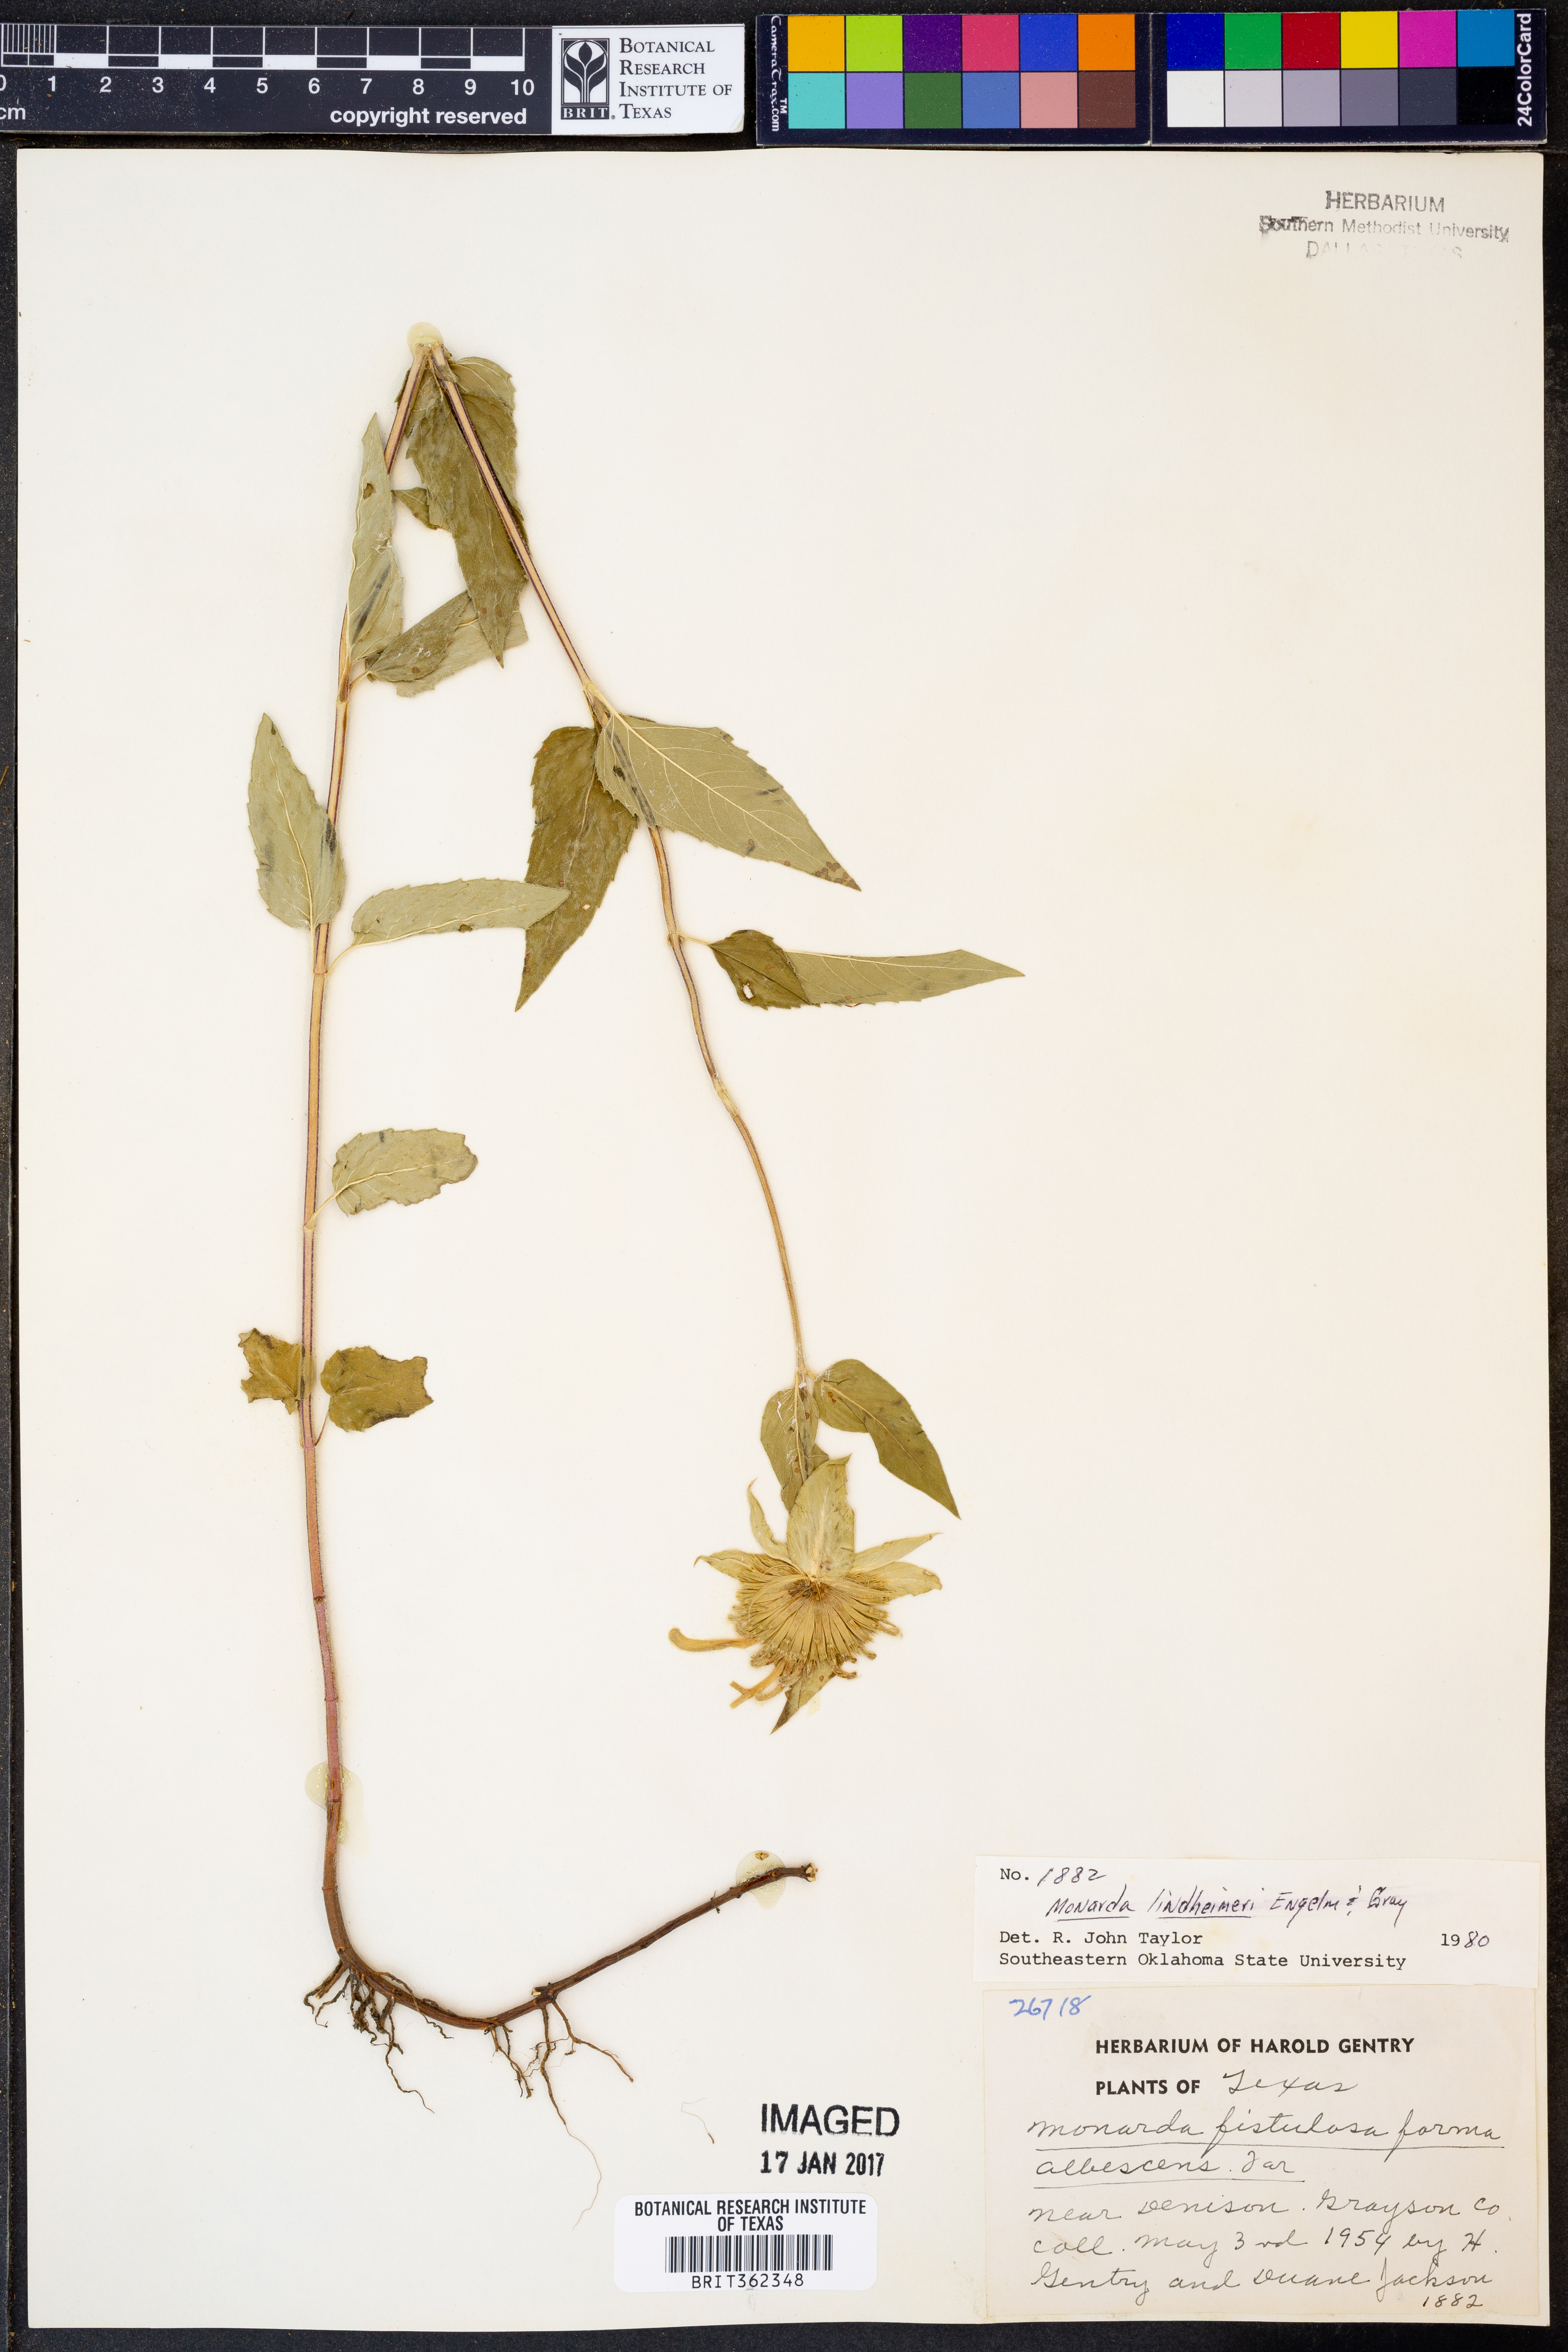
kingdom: Plantae
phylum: Tracheophyta
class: Magnoliopsida
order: Lamiales
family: Lamiaceae
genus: Monarda
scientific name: Monarda lindheimeri
